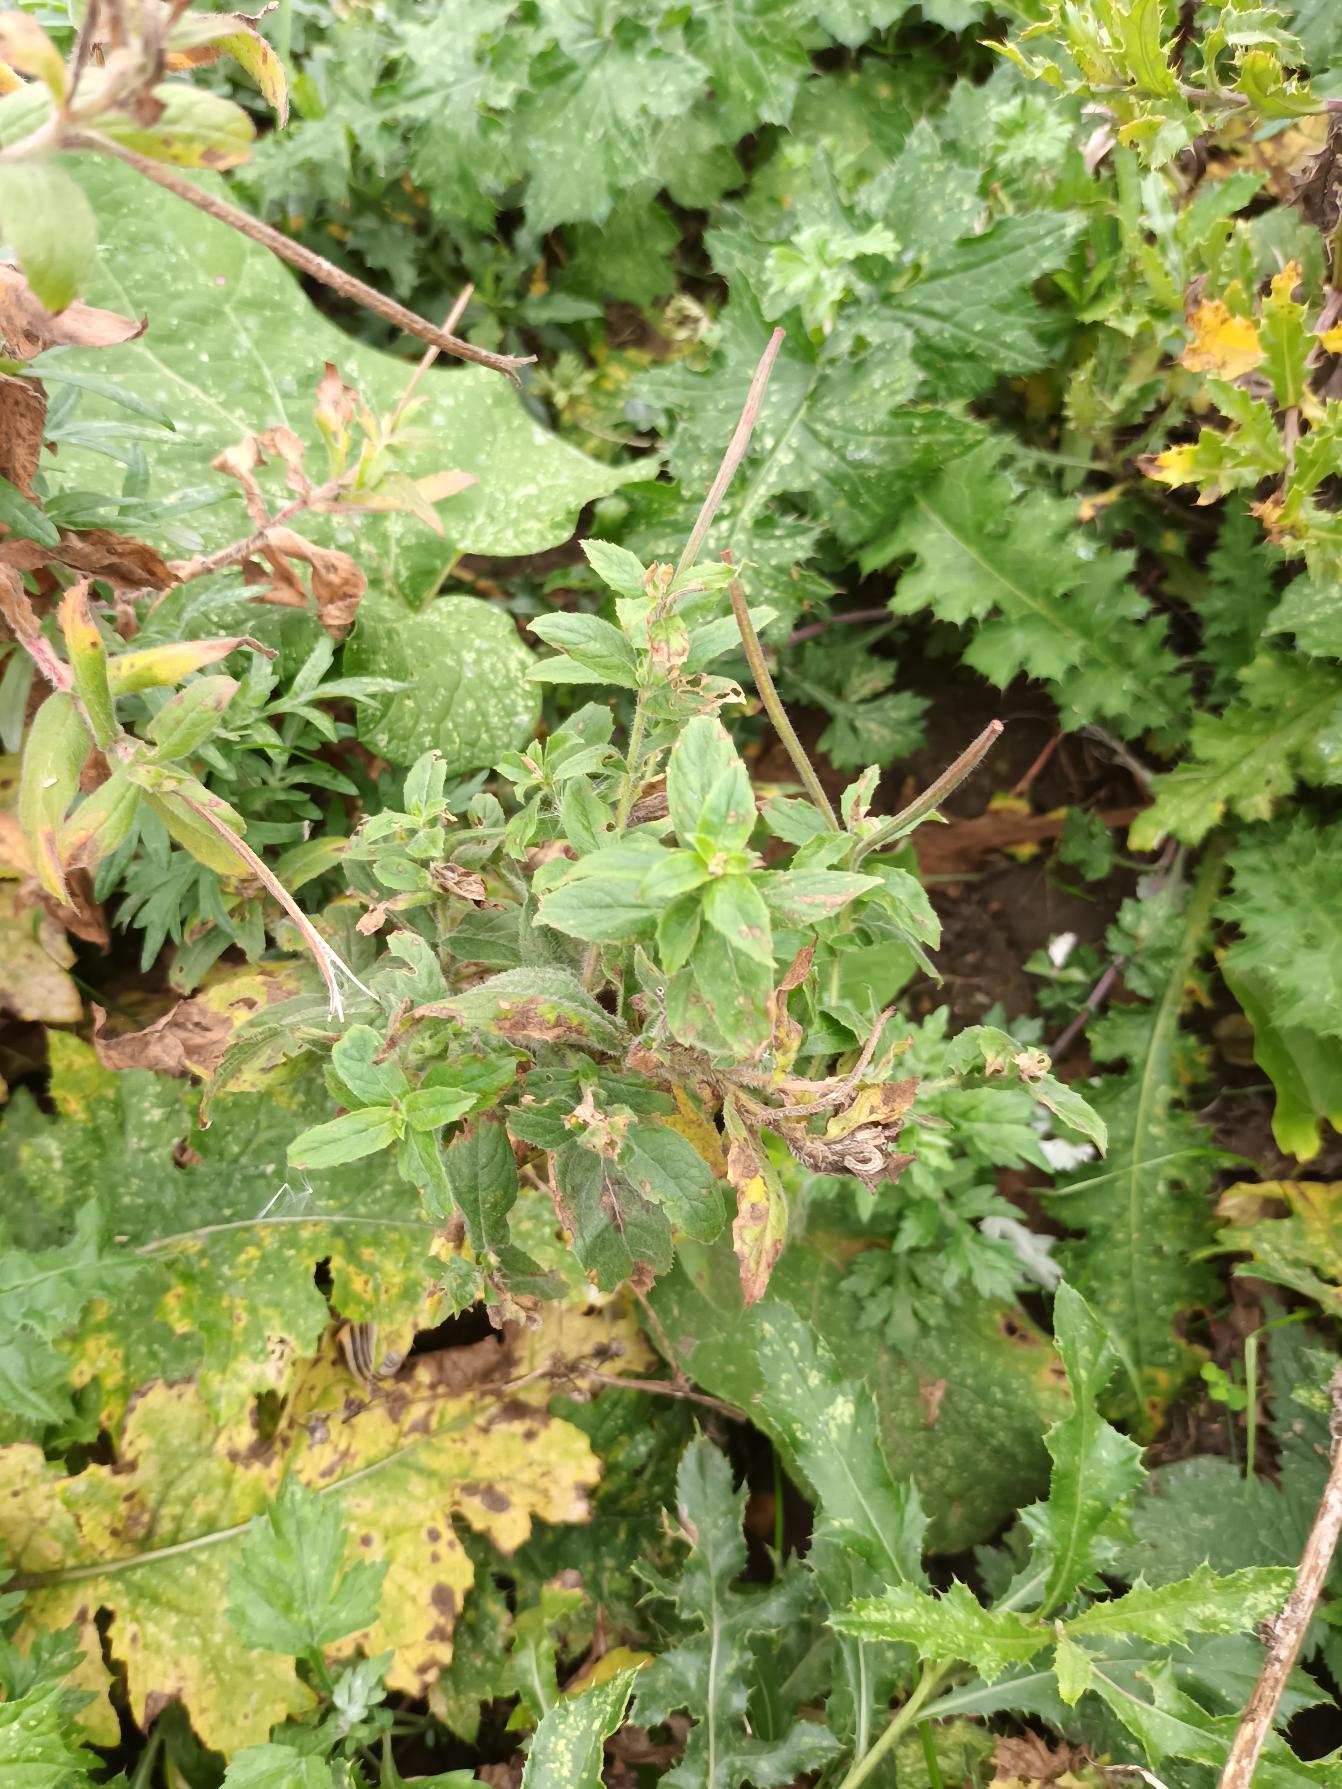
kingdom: Plantae
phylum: Tracheophyta
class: Magnoliopsida
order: Myrtales
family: Onagraceae
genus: Epilobium
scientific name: Epilobium hirsutum
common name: Lådden dueurt
